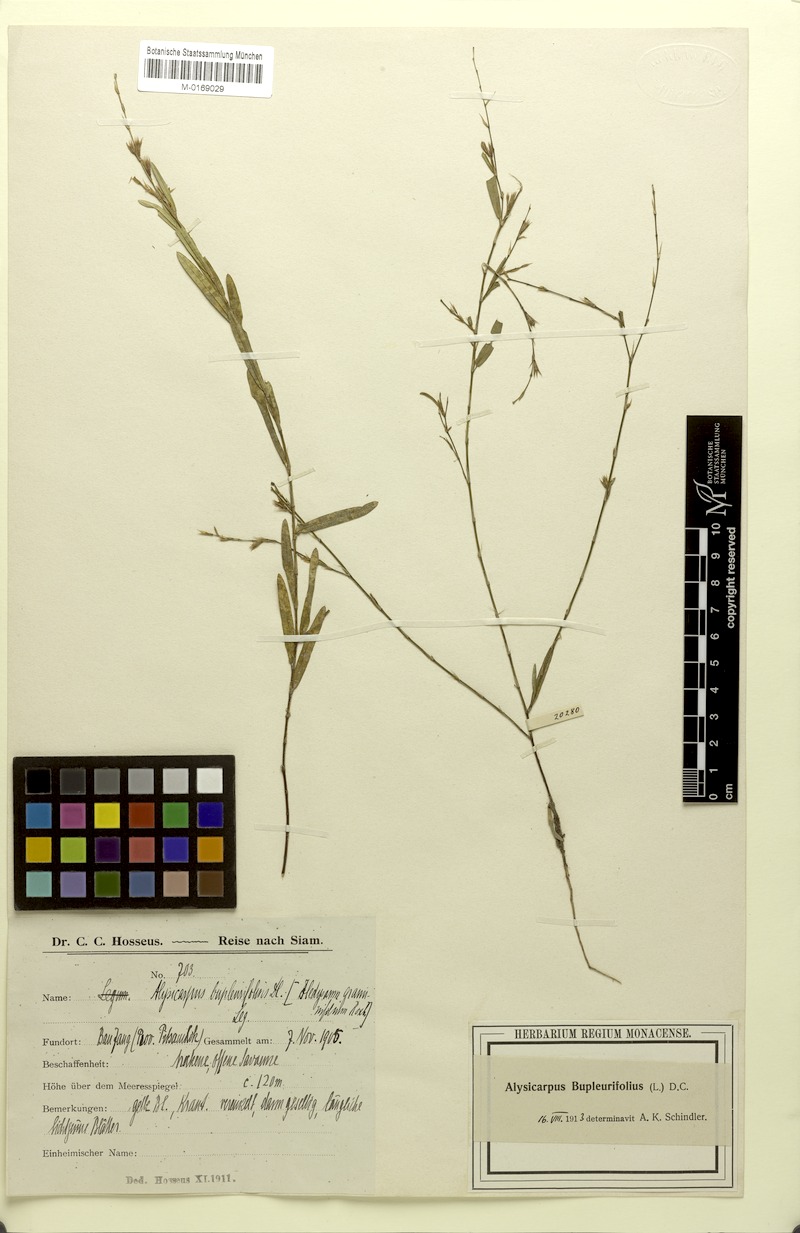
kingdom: Plantae
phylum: Tracheophyta
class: Magnoliopsida
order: Fabales
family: Fabaceae
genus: Alysicarpus
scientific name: Alysicarpus bupleurifolius
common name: Sweet alys
